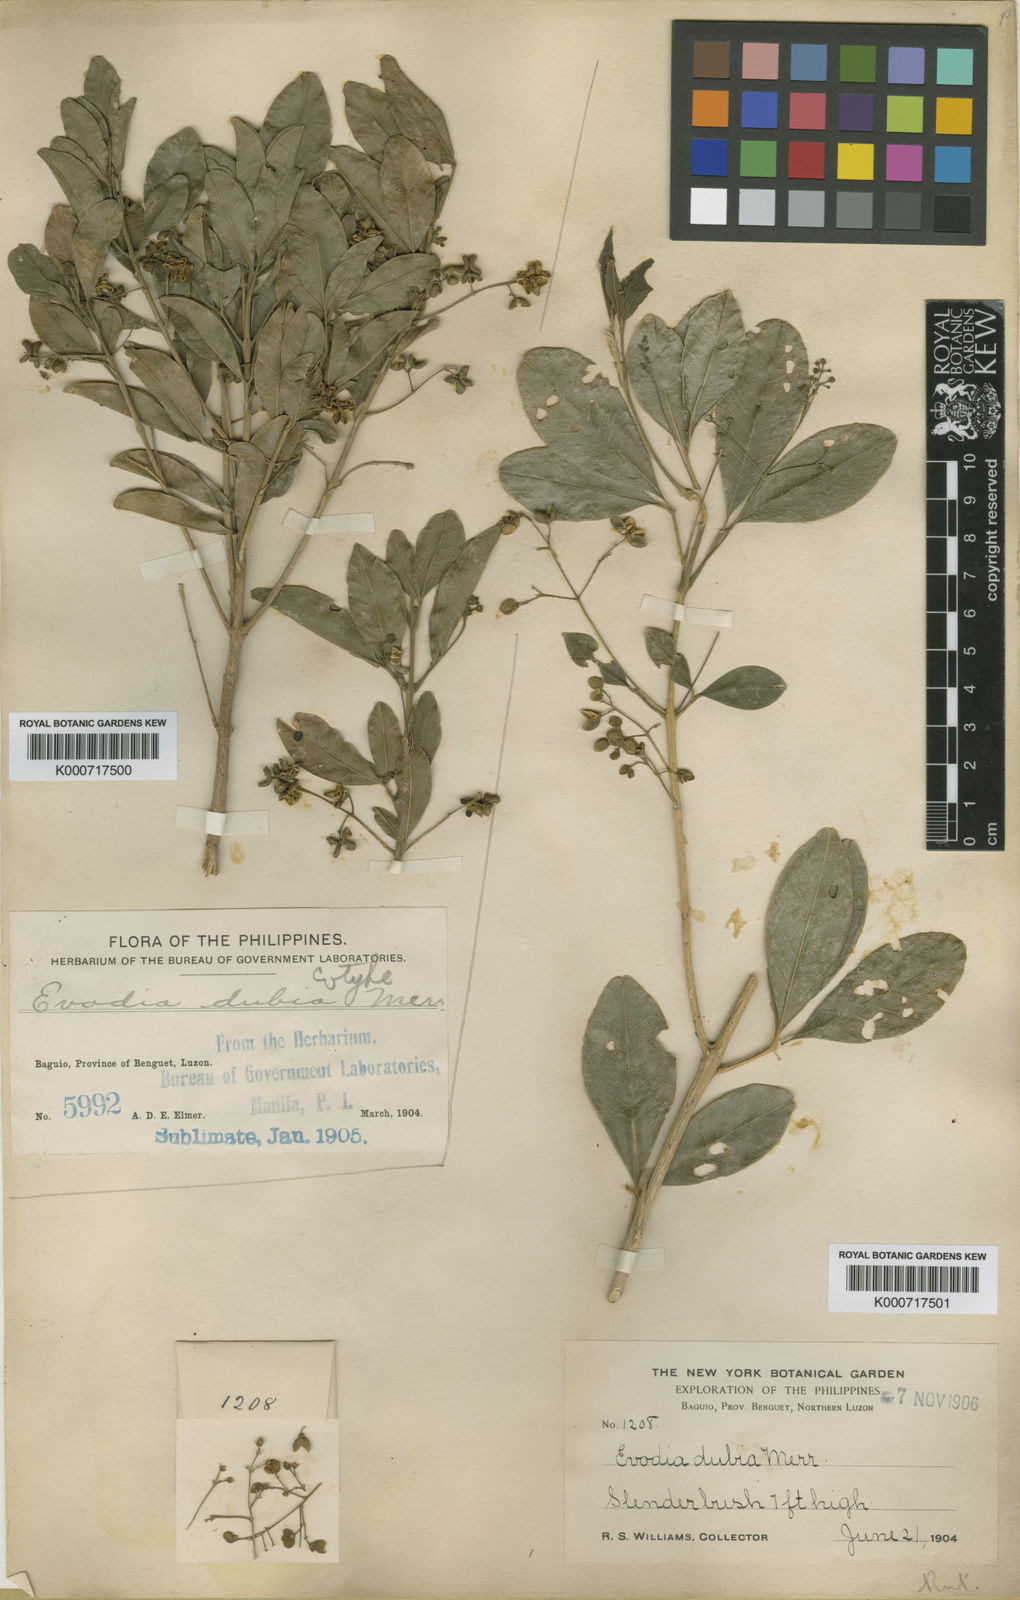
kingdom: Plantae
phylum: Tracheophyta
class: Magnoliopsida
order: Sapindales
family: Rutaceae
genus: Melicope
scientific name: Melicope dubia
